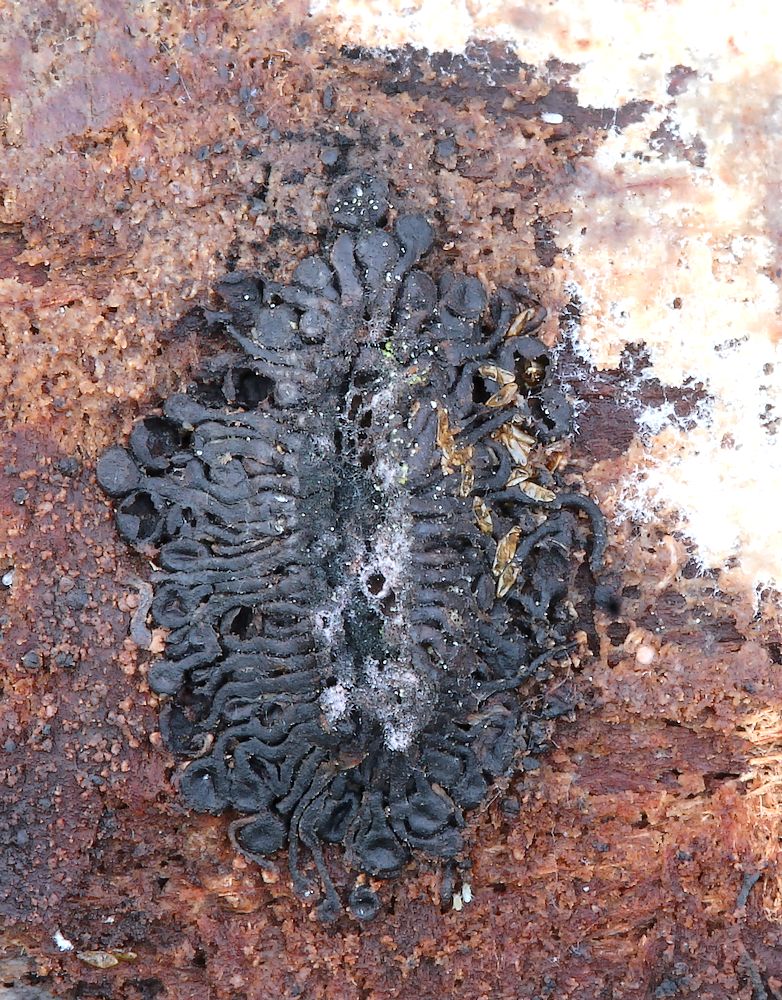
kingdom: Fungi
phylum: Ascomycota
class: Sordariomycetes
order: Calosphaeriales
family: Calosphaeriaceae
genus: Calosphaeria
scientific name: Calosphaeria pulchella
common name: smuk slyngkerne
